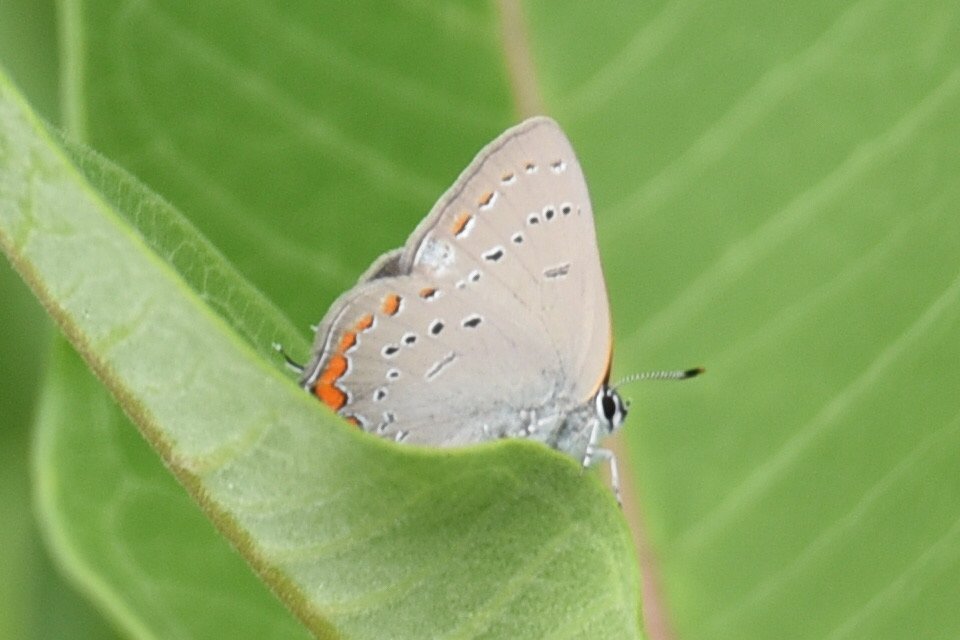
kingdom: Animalia
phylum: Arthropoda
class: Insecta
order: Lepidoptera
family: Lycaenidae
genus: Strymon
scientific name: Strymon acadica
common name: Acadian Hairstreak
